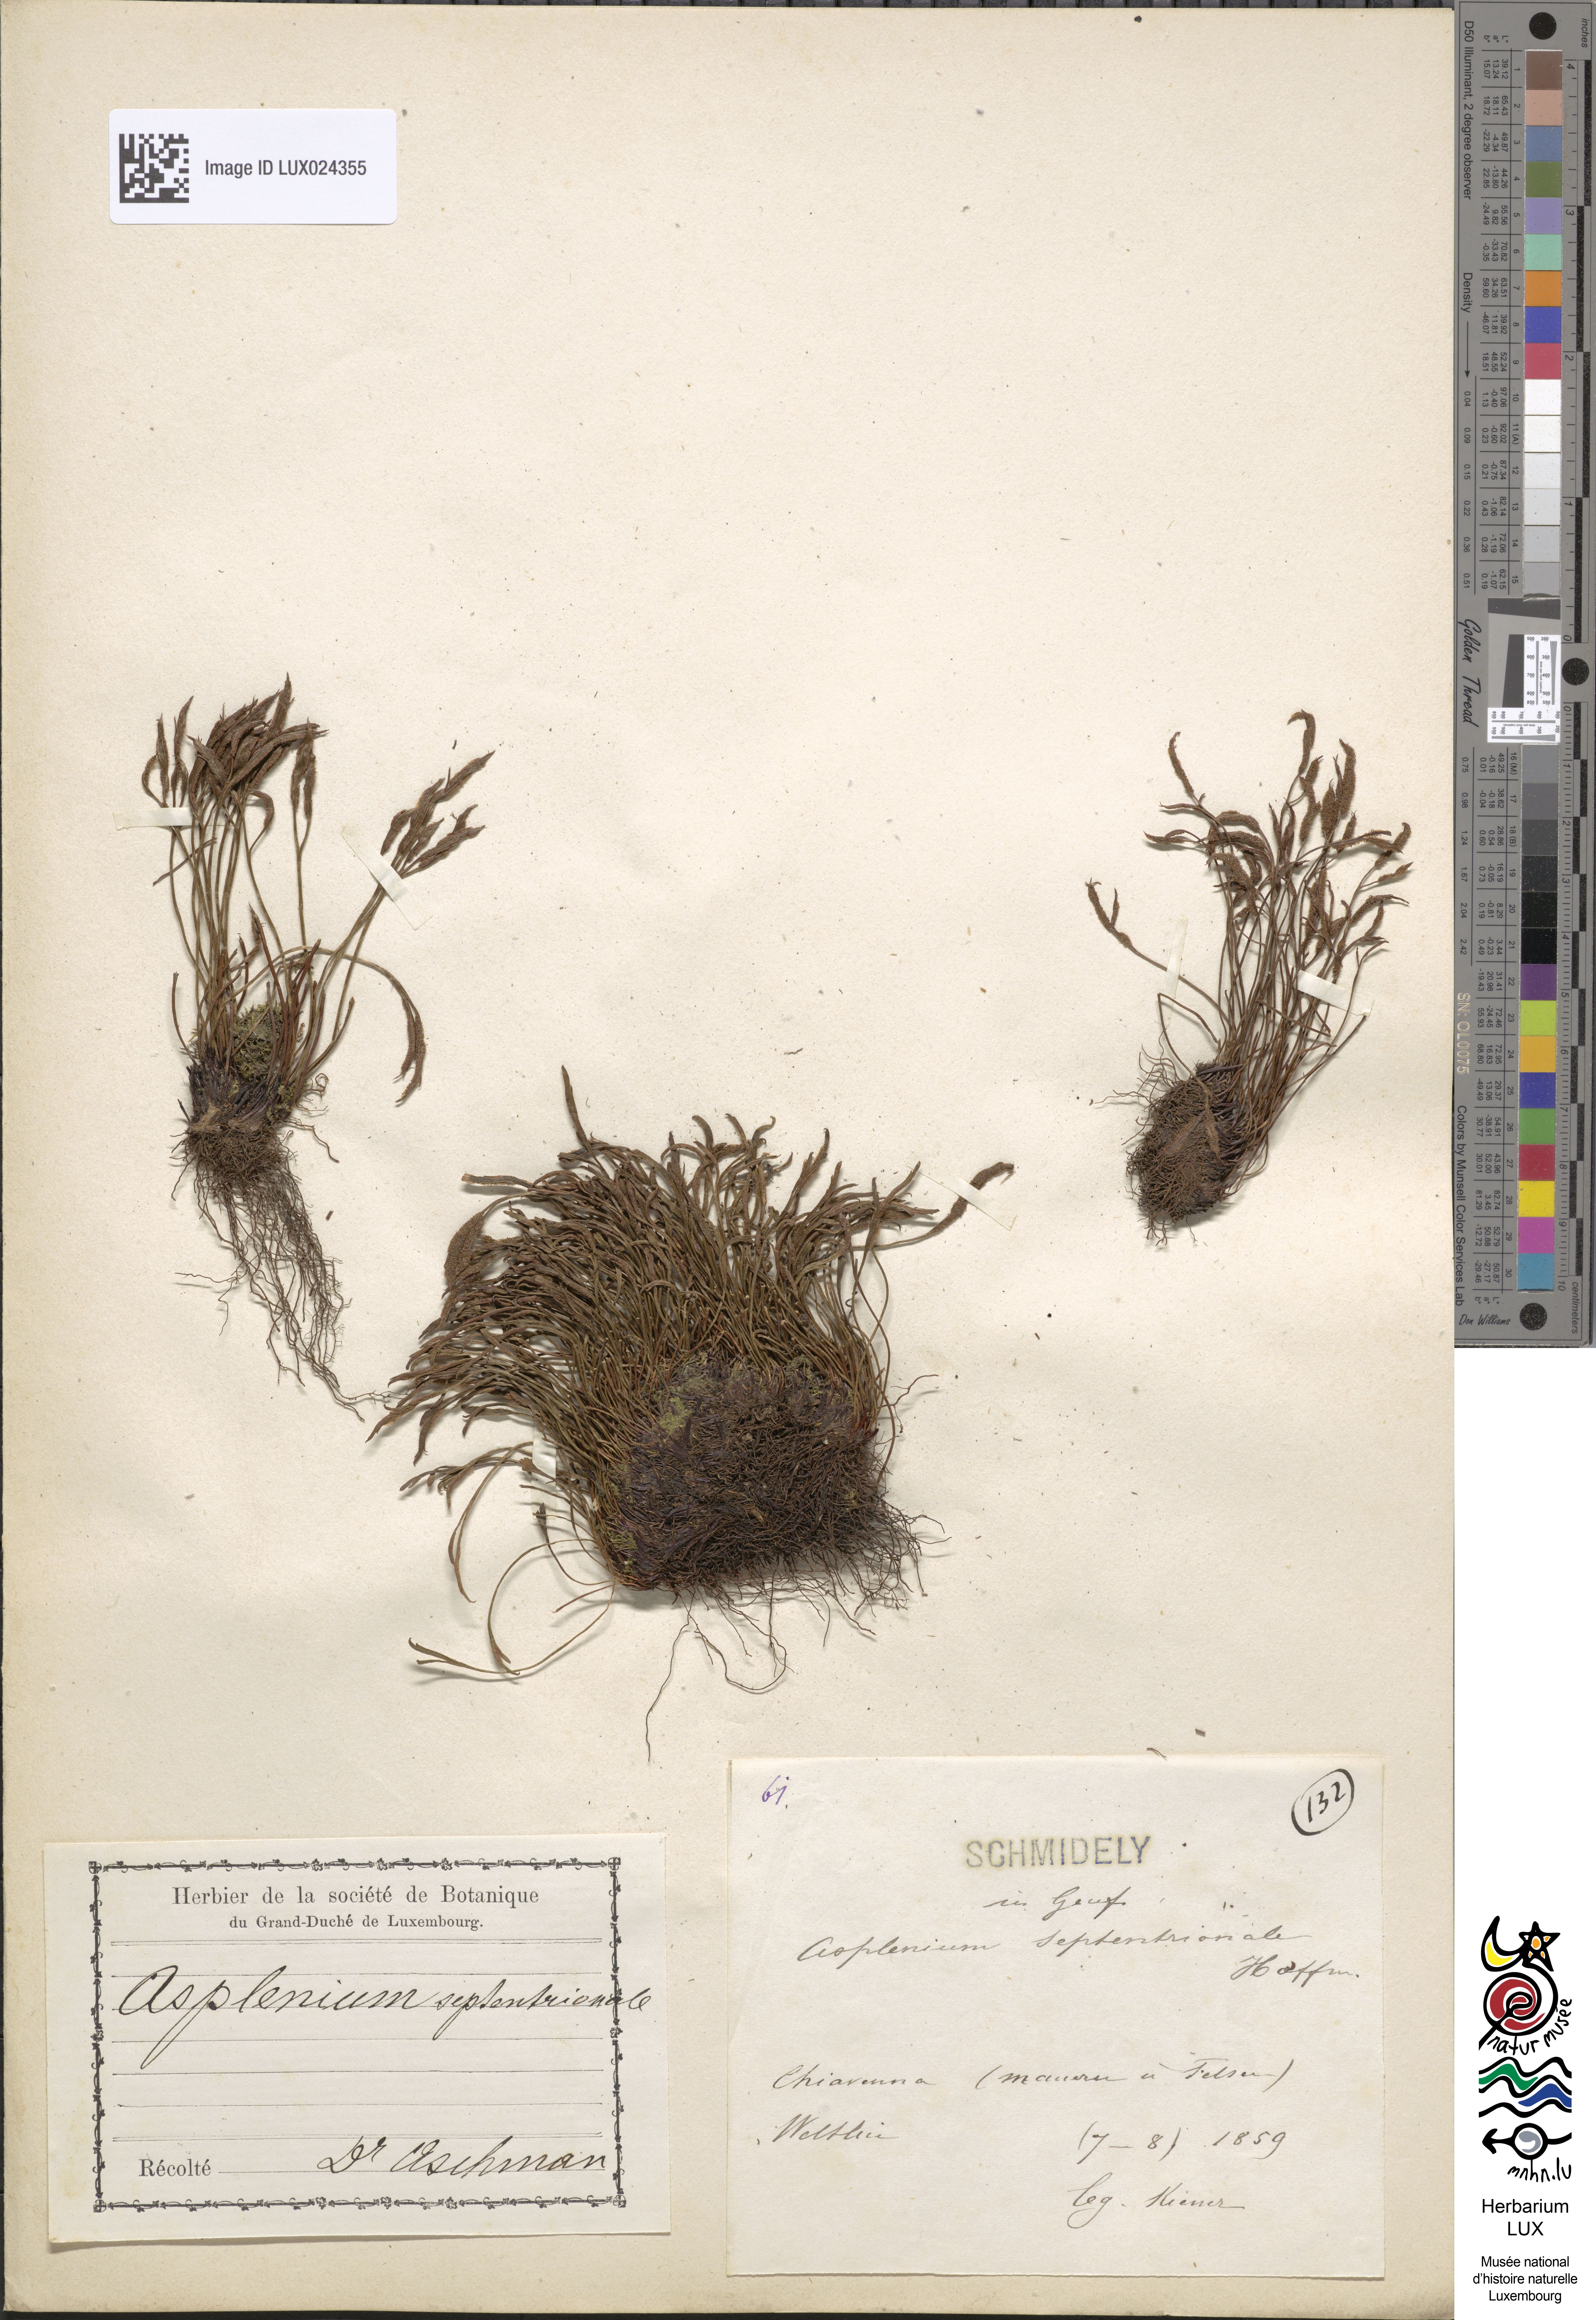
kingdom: Plantae
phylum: Tracheophyta
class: Polypodiopsida
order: Polypodiales
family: Aspleniaceae
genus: Asplenium
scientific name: Asplenium septentrionale
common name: Forked spleenwort
